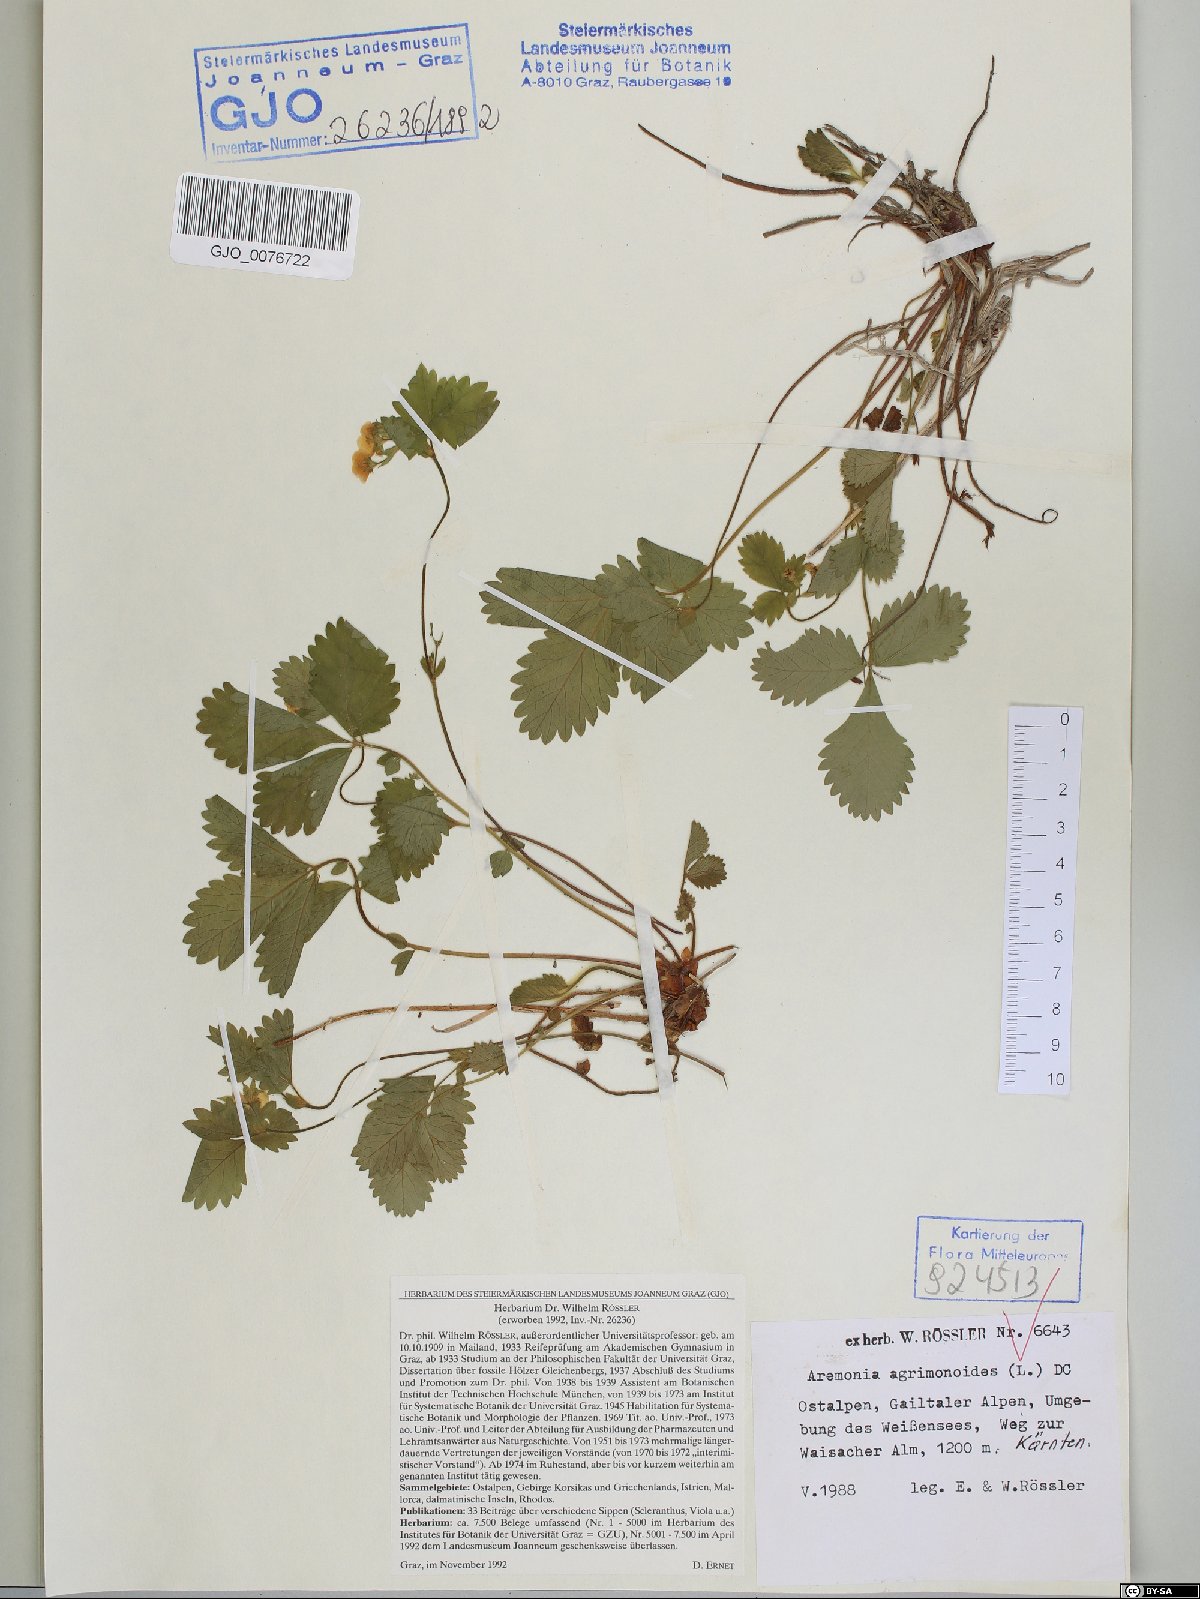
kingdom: Plantae
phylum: Tracheophyta
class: Magnoliopsida
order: Rosales
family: Rosaceae
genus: Aremonia
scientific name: Aremonia agrimonoides
